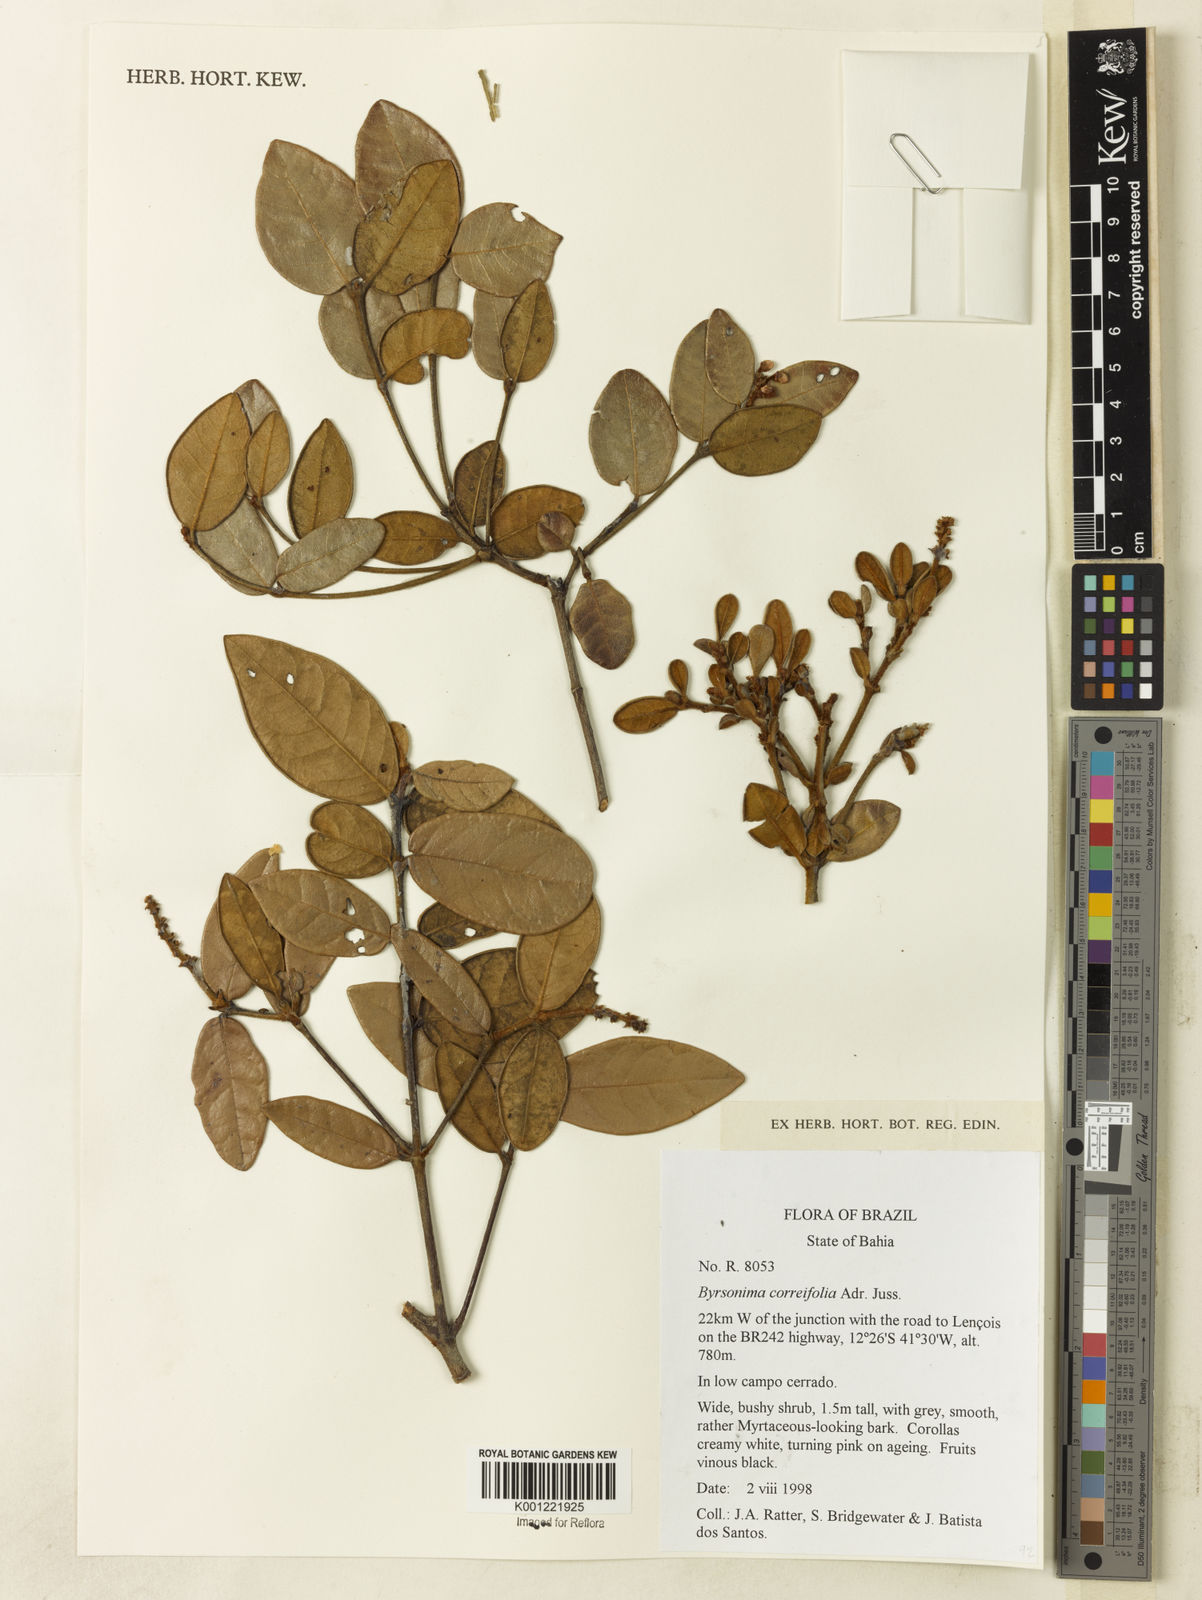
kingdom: Plantae
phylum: Tracheophyta
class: Magnoliopsida
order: Malpighiales
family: Malpighiaceae
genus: Byrsonima
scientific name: Byrsonima correifolia
